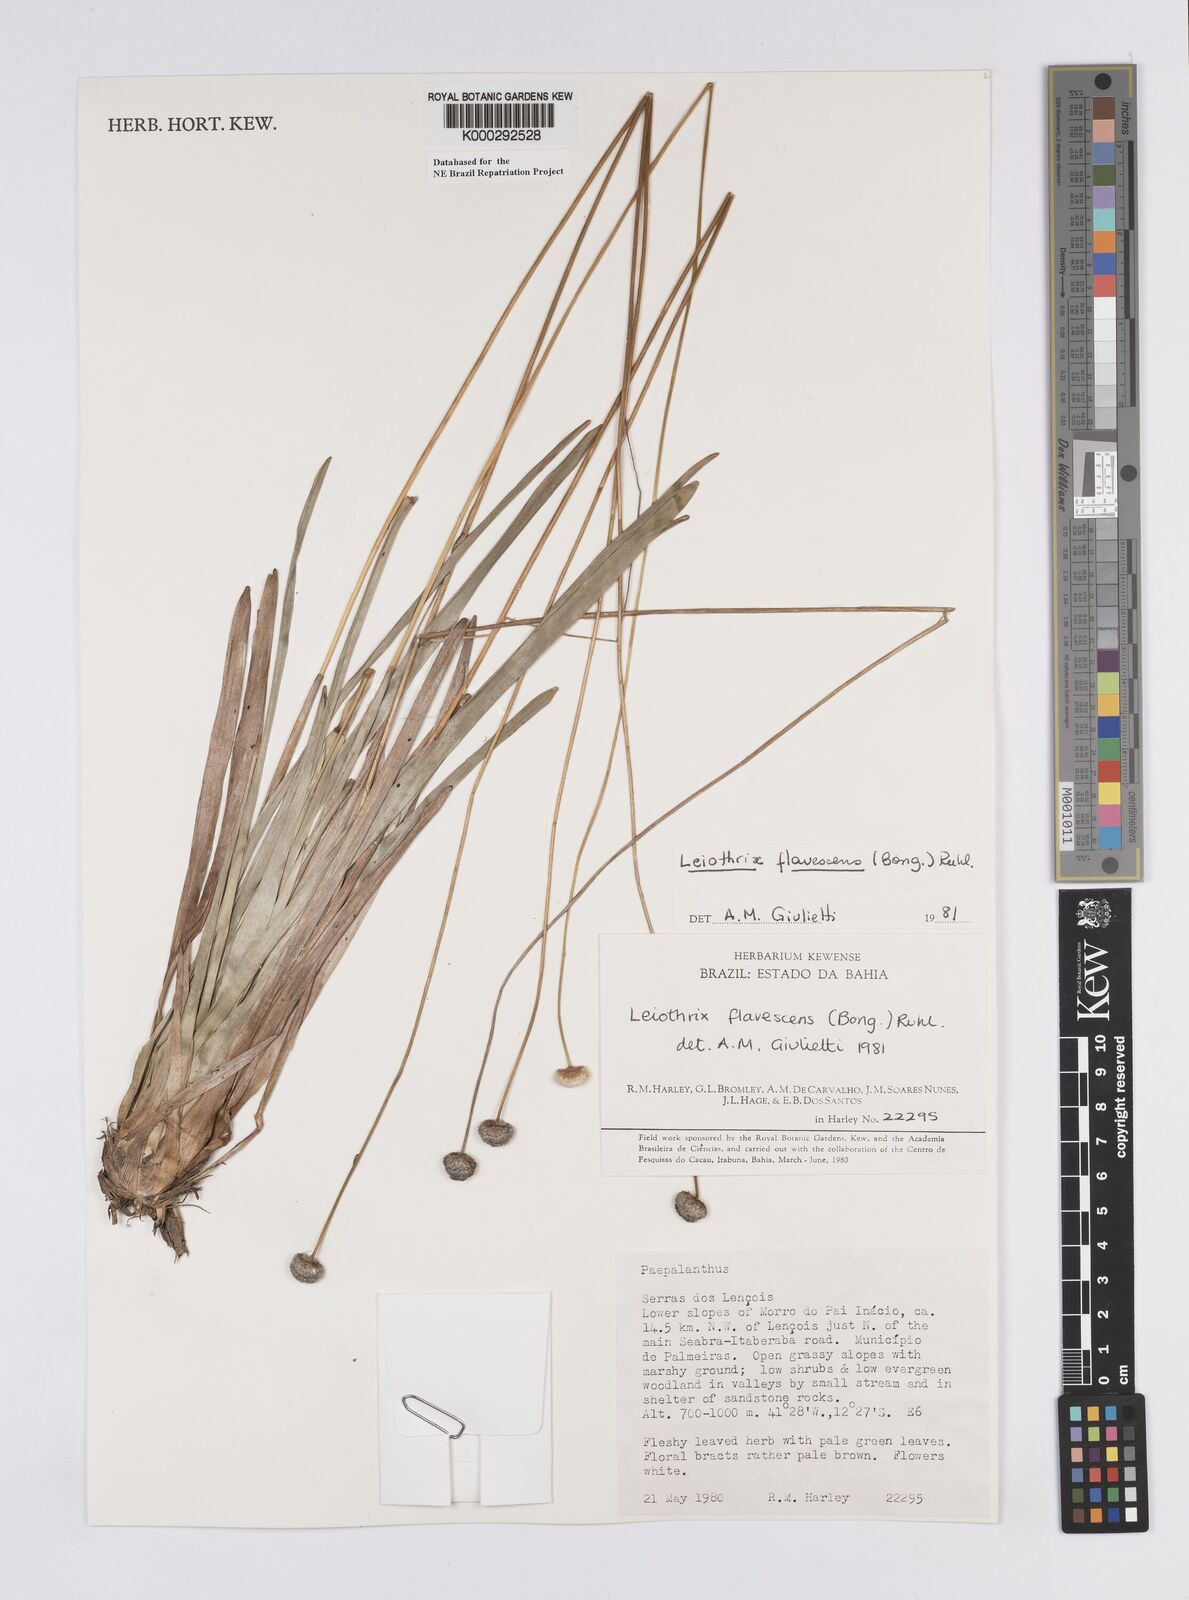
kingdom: Plantae
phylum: Tracheophyta
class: Liliopsida
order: Poales
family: Eriocaulaceae
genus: Leiothrix
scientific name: Leiothrix flavescens
